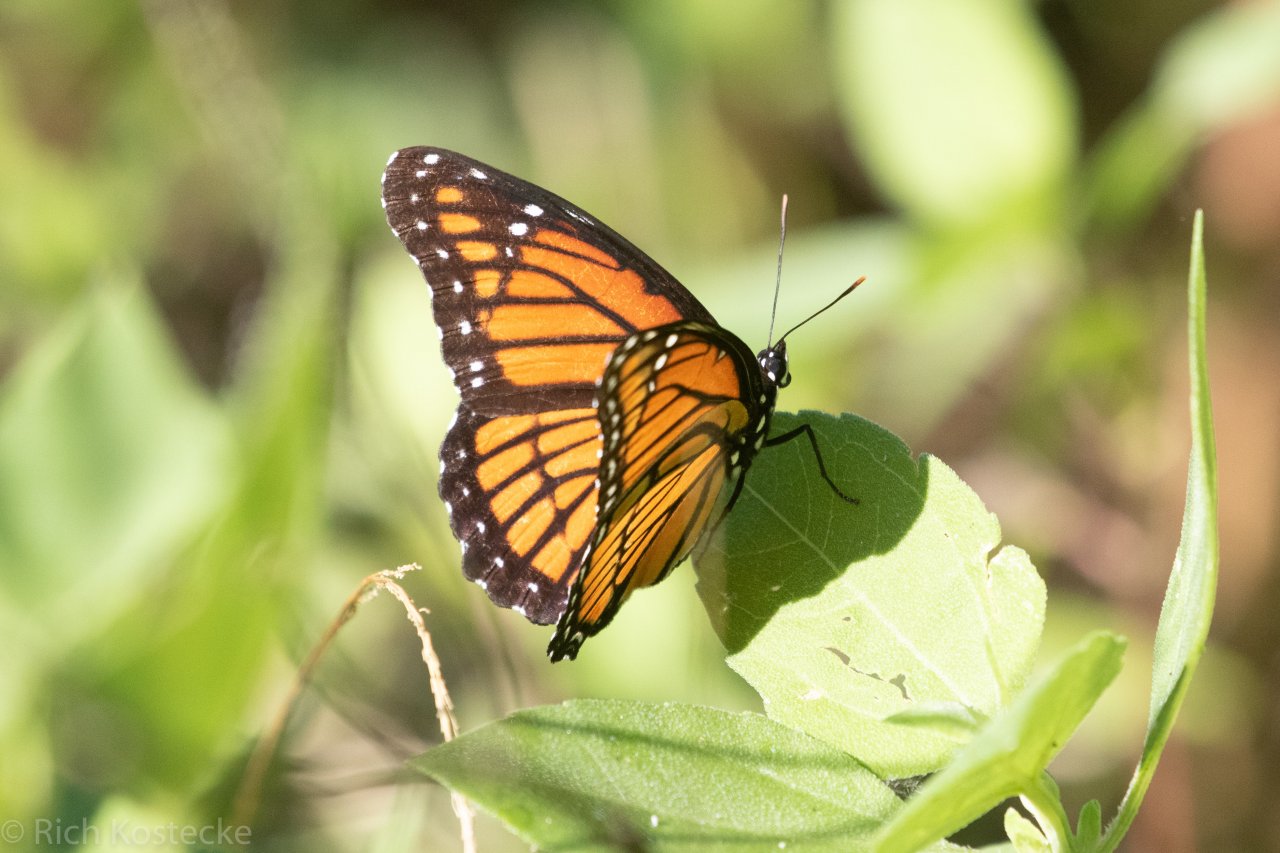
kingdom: Animalia
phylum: Arthropoda
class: Insecta
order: Lepidoptera
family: Nymphalidae
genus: Limenitis
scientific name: Limenitis archippus
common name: Viceroy
